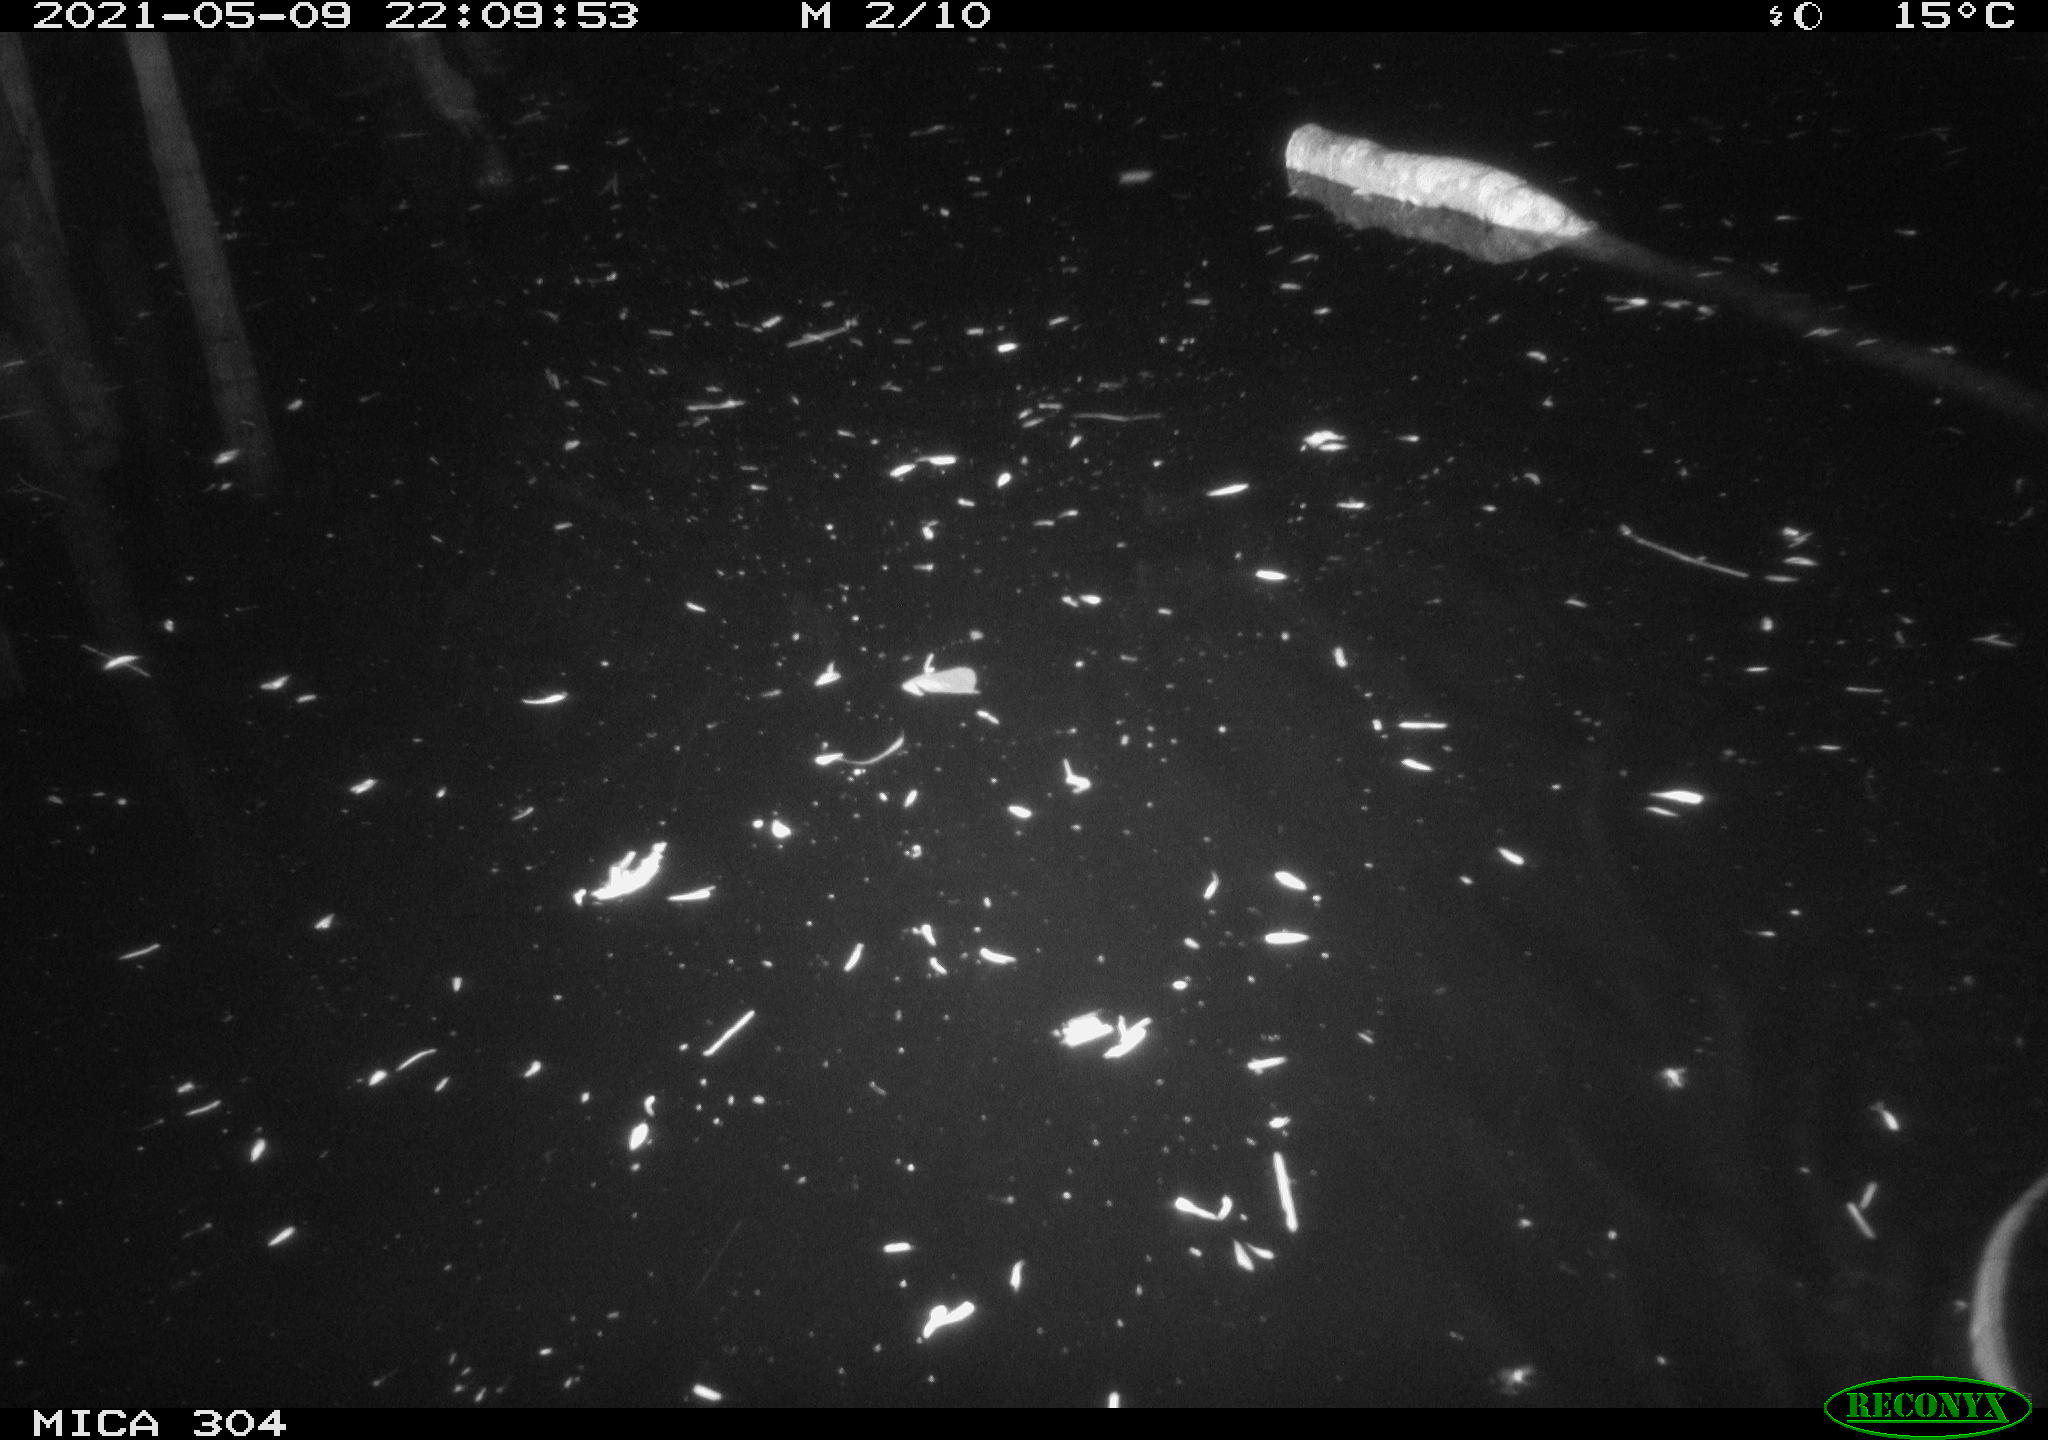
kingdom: Animalia
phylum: Chordata
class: Mammalia
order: Rodentia
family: Cricetidae
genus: Ondatra
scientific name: Ondatra zibethicus
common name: Muskrat
